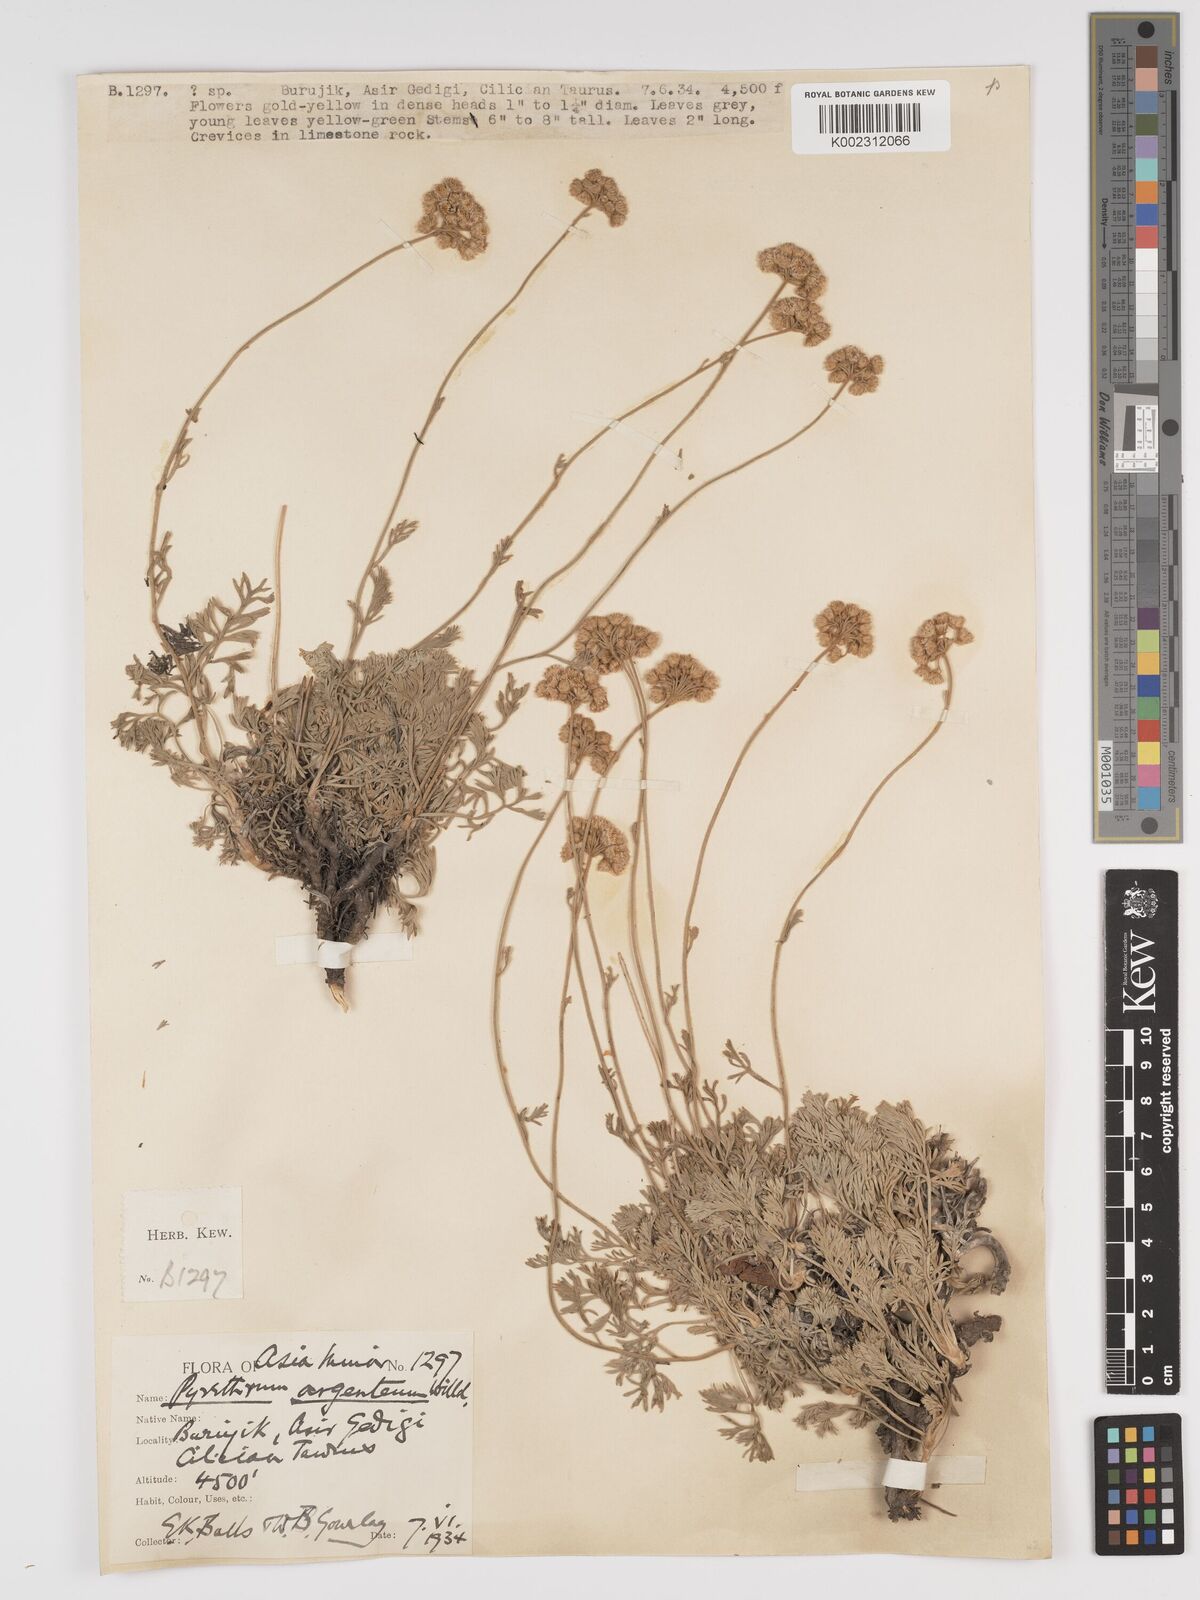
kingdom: Plantae
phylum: Tracheophyta
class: Magnoliopsida
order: Asterales
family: Asteraceae
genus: Tanacetum
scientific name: Tanacetum argenteum
